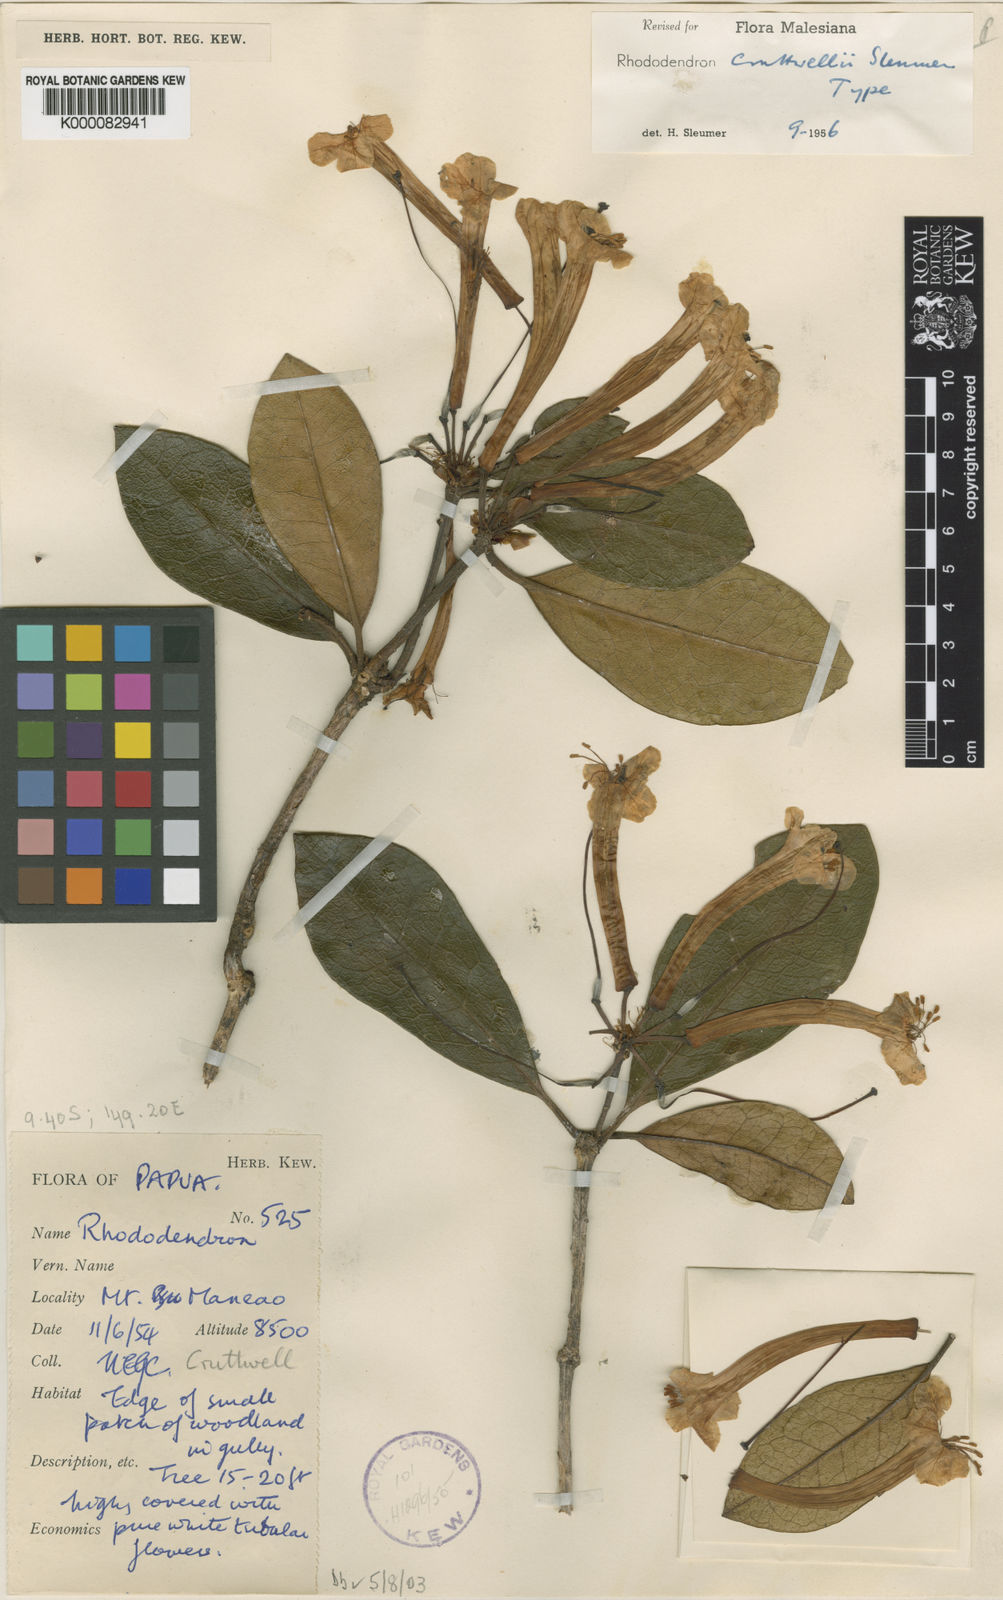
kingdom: Plantae
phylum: Tracheophyta
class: Magnoliopsida
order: Ericales
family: Ericaceae
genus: Rhododendron
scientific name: Rhododendron cruttwellii
